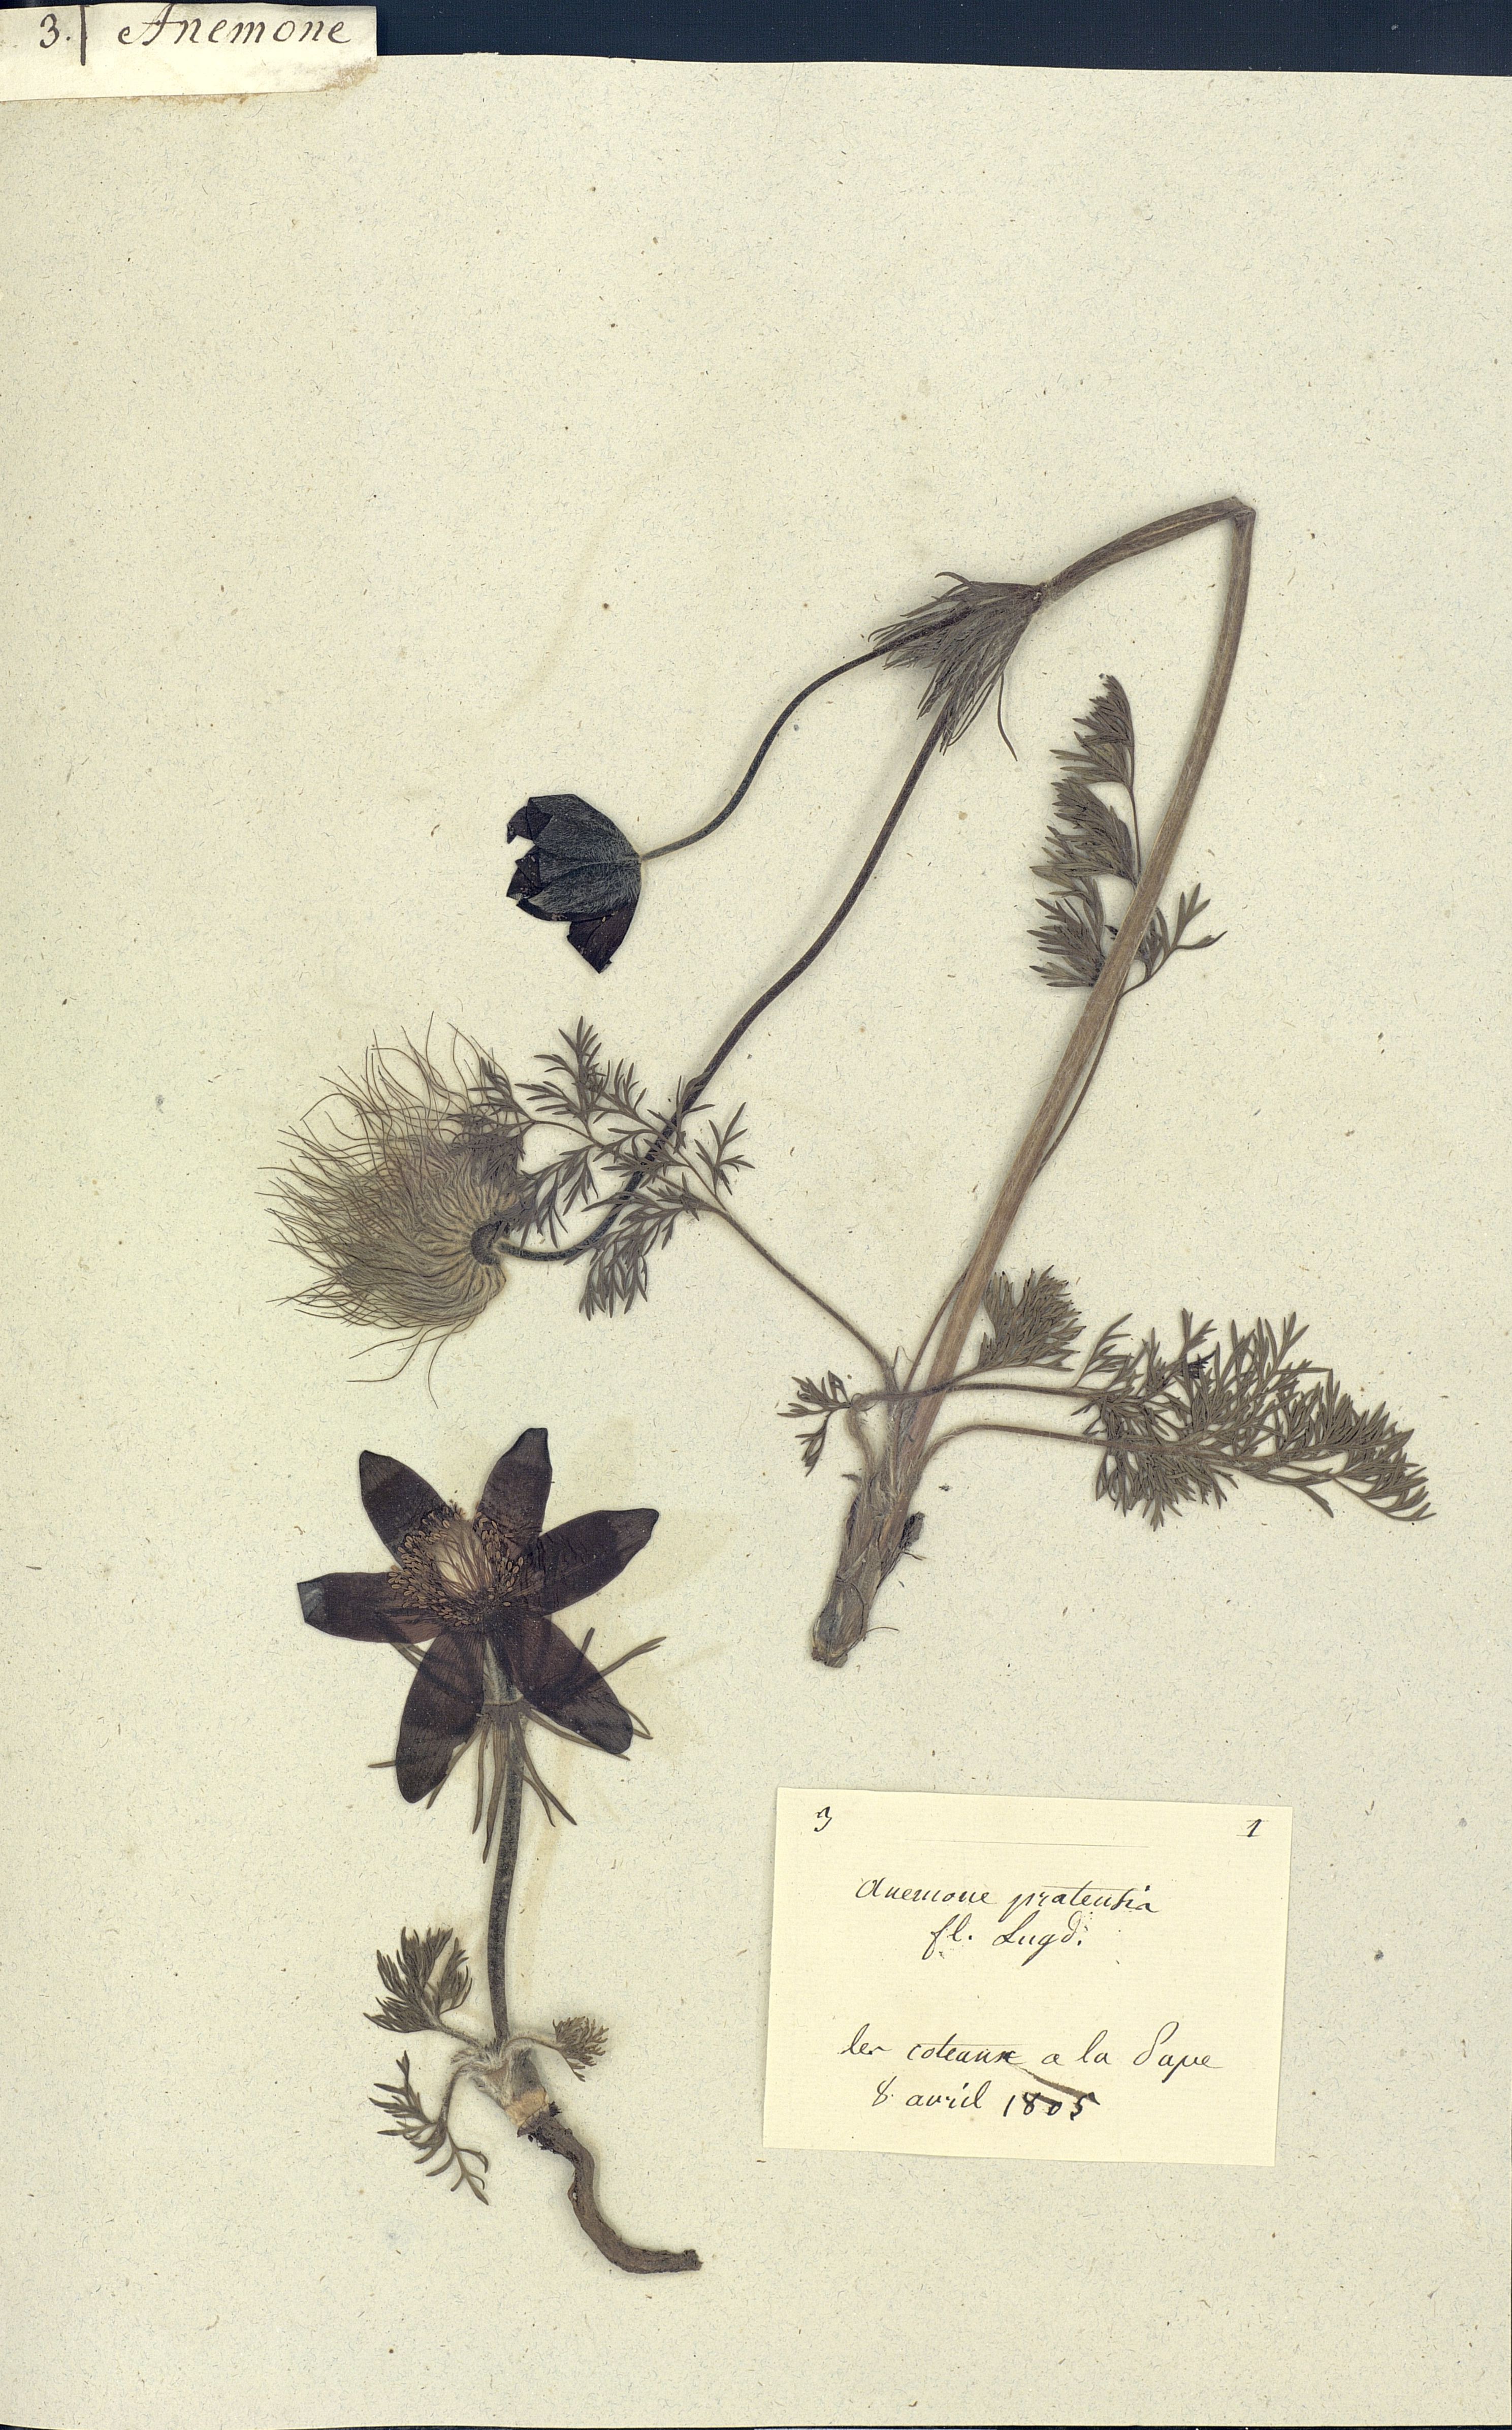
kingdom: Plantae
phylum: Tracheophyta
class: Magnoliopsida
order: Ranunculales
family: Ranunculaceae
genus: Anemone
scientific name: Anemone sylvestris
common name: Snowdrop anemone
